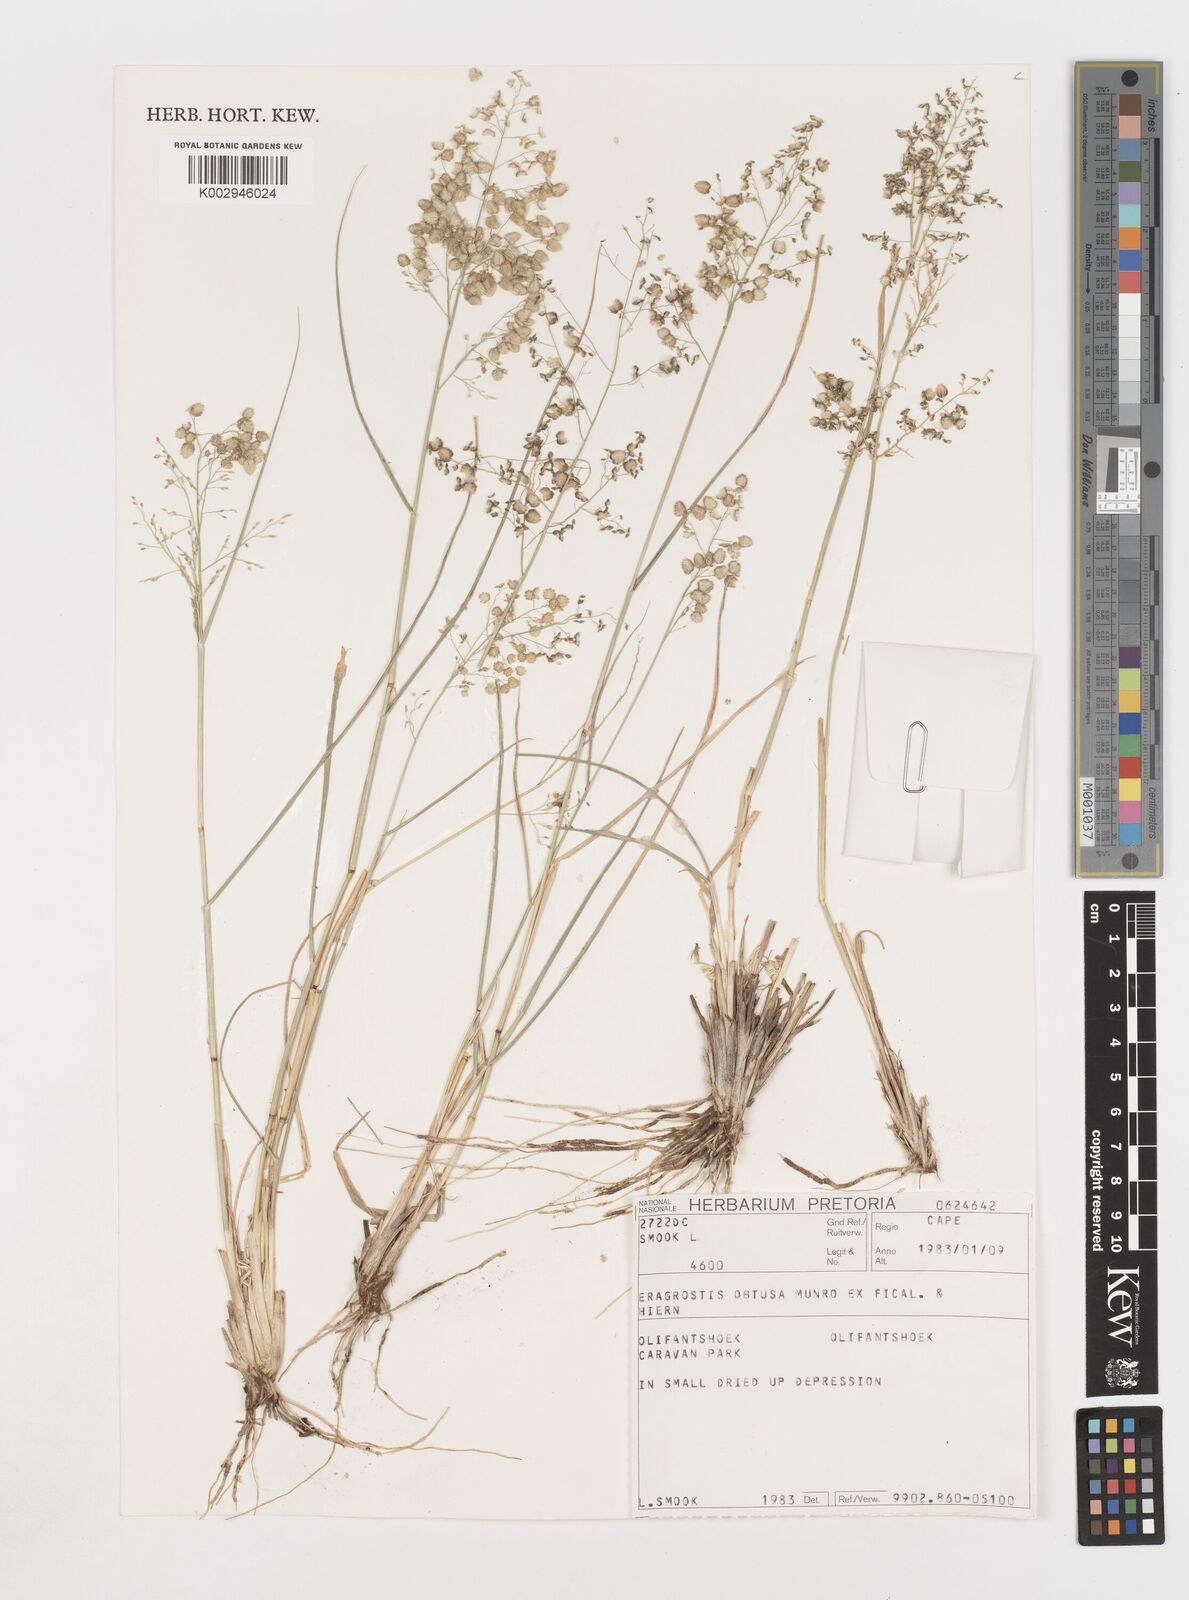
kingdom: Plantae
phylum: Tracheophyta
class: Liliopsida
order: Poales
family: Poaceae
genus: Eragrostis
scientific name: Eragrostis obtusa
